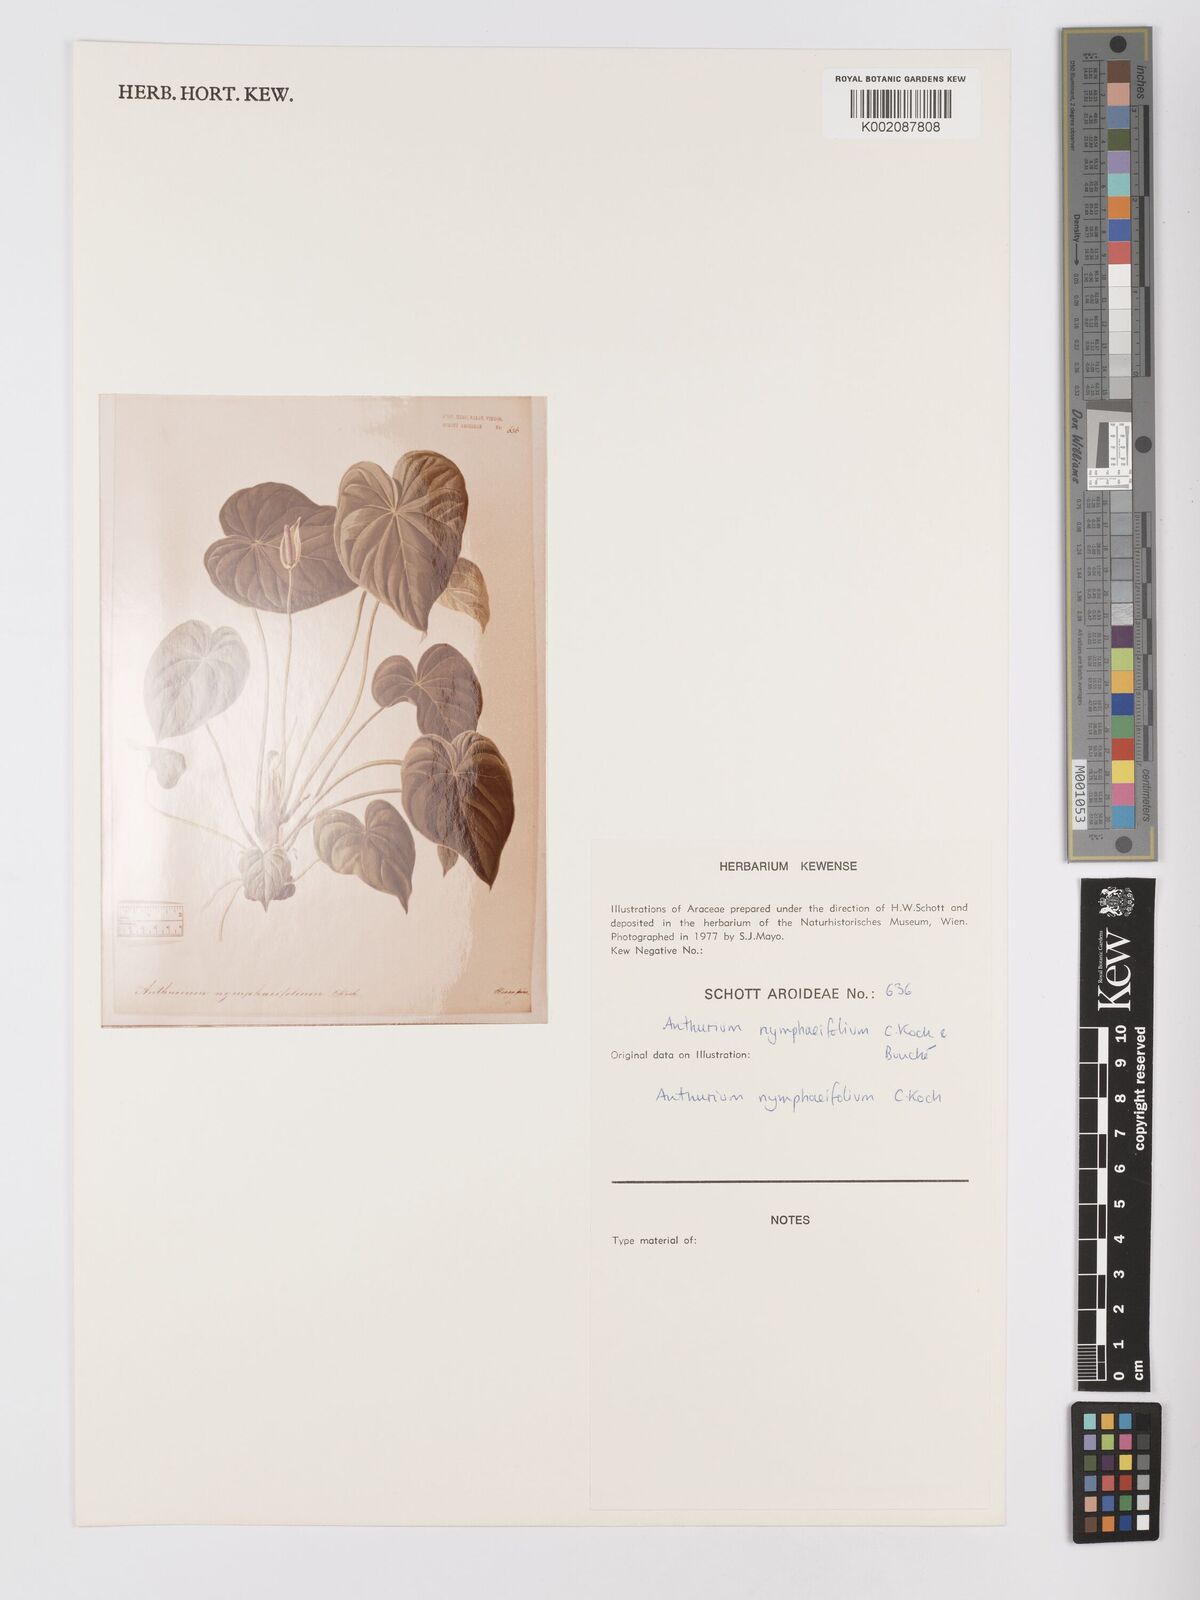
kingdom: Plantae
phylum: Tracheophyta
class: Liliopsida
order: Alismatales
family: Araceae
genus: Anthurium
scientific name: Anthurium nymphaeifolium
